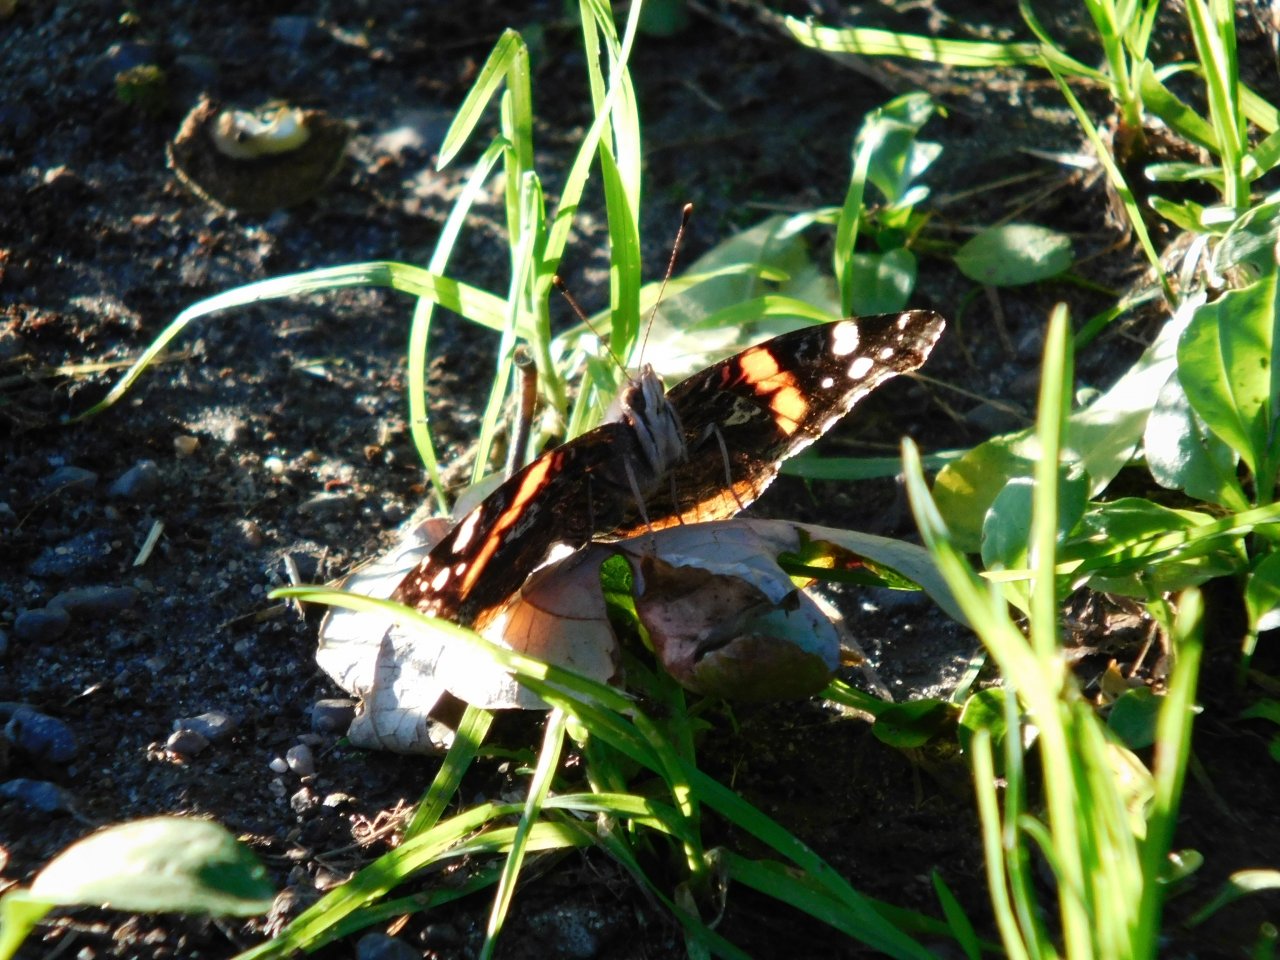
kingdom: Animalia
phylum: Arthropoda
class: Insecta
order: Lepidoptera
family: Nymphalidae
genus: Vanessa
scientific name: Vanessa atalanta
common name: Red Admiral
